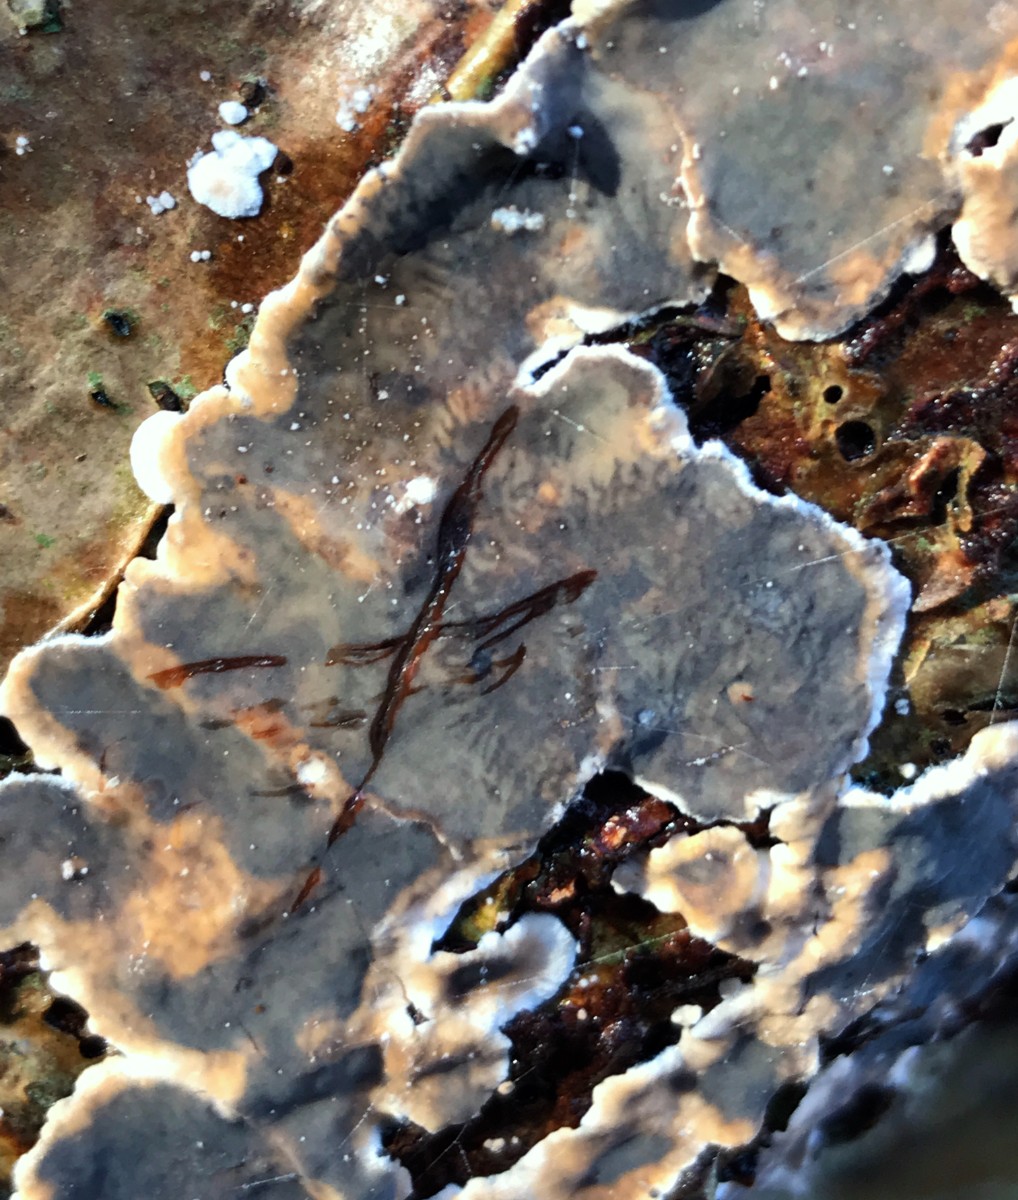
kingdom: Fungi
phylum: Basidiomycota
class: Agaricomycetes
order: Russulales
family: Stereaceae
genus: Stereum
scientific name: Stereum rugosum
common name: rynket lædersvamp
